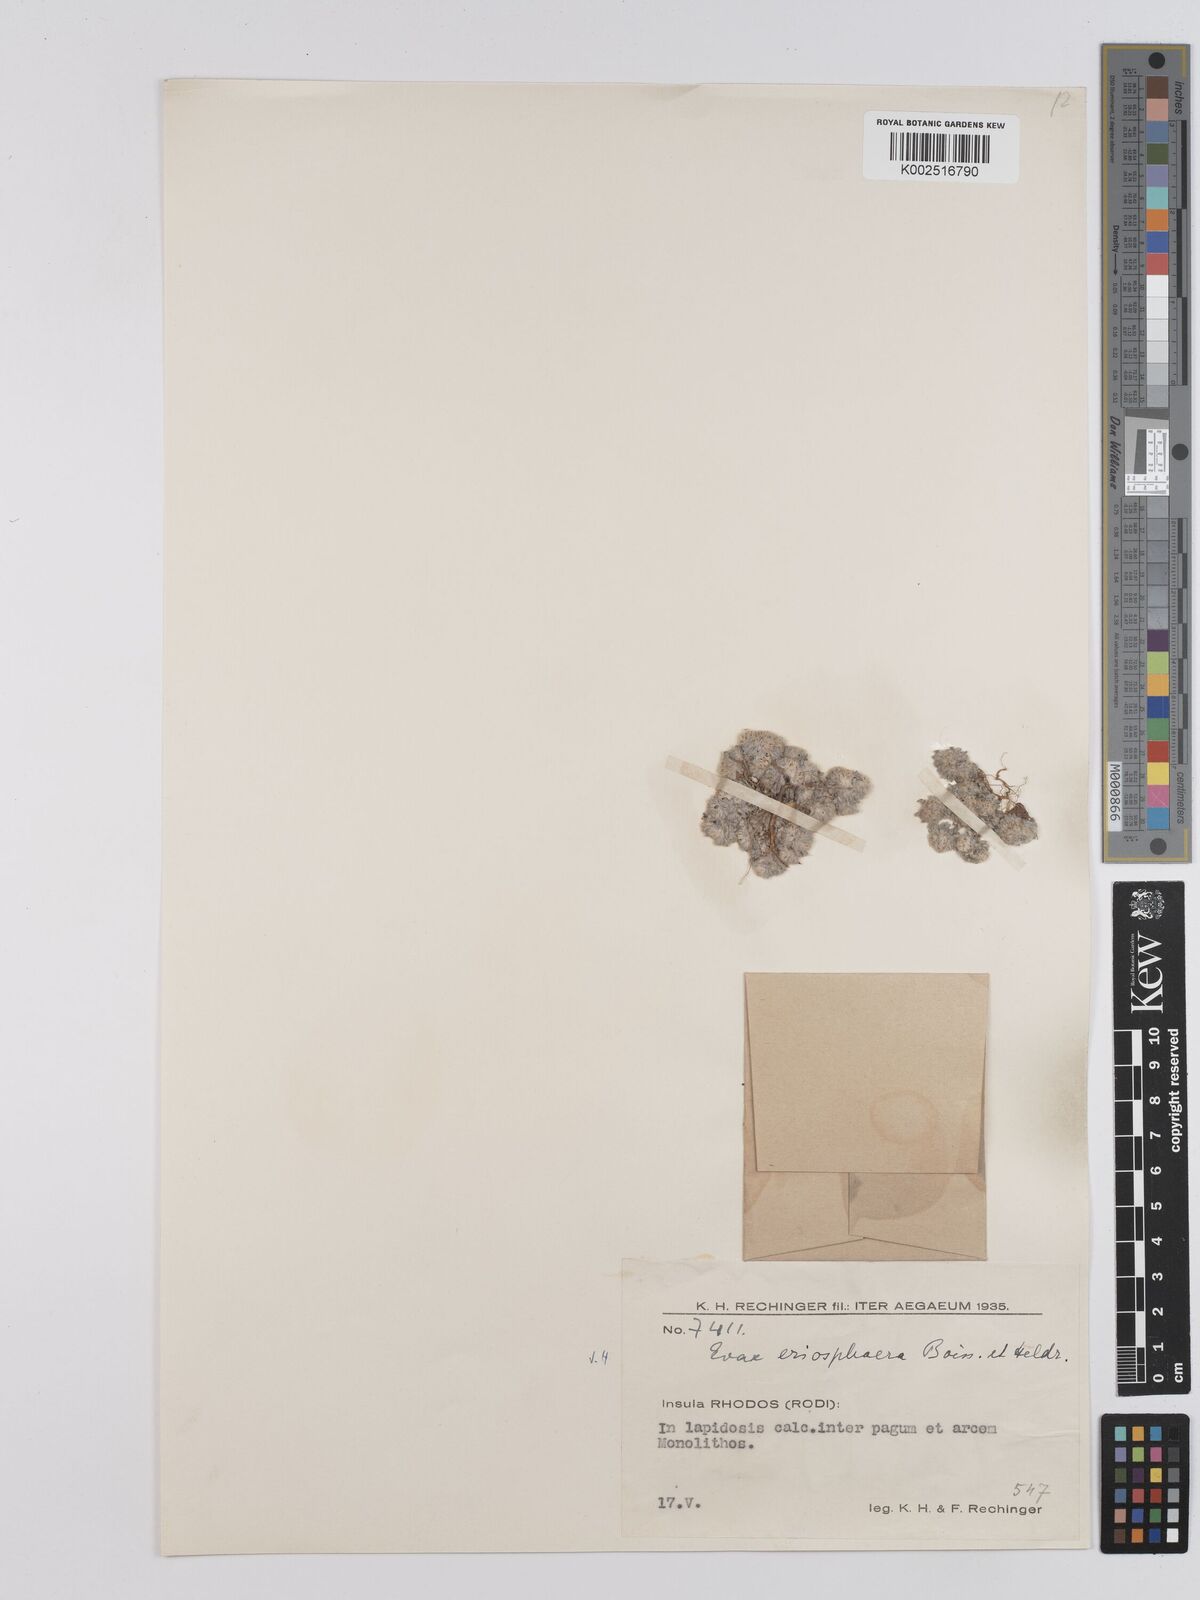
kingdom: Plantae
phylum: Tracheophyta
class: Magnoliopsida
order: Asterales
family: Asteraceae
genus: Filago
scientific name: Filago eriosphaera
